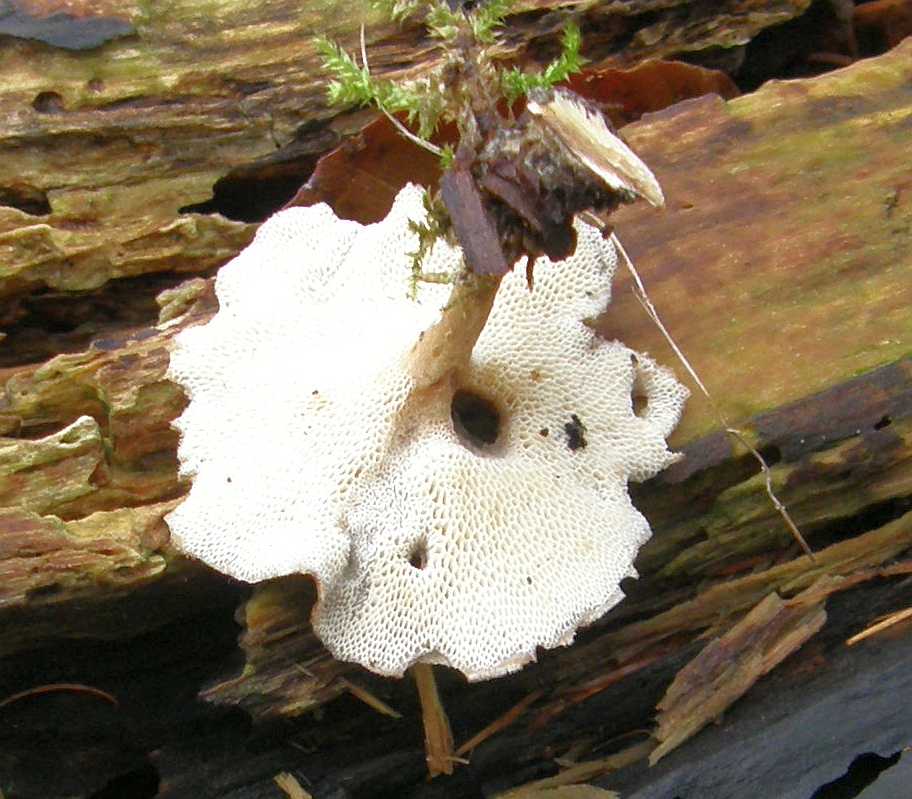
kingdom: Fungi
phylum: Basidiomycota
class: Agaricomycetes
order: Polyporales
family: Polyporaceae
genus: Lentinus
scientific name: Lentinus brumalis
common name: vinter-stilkporesvamp
